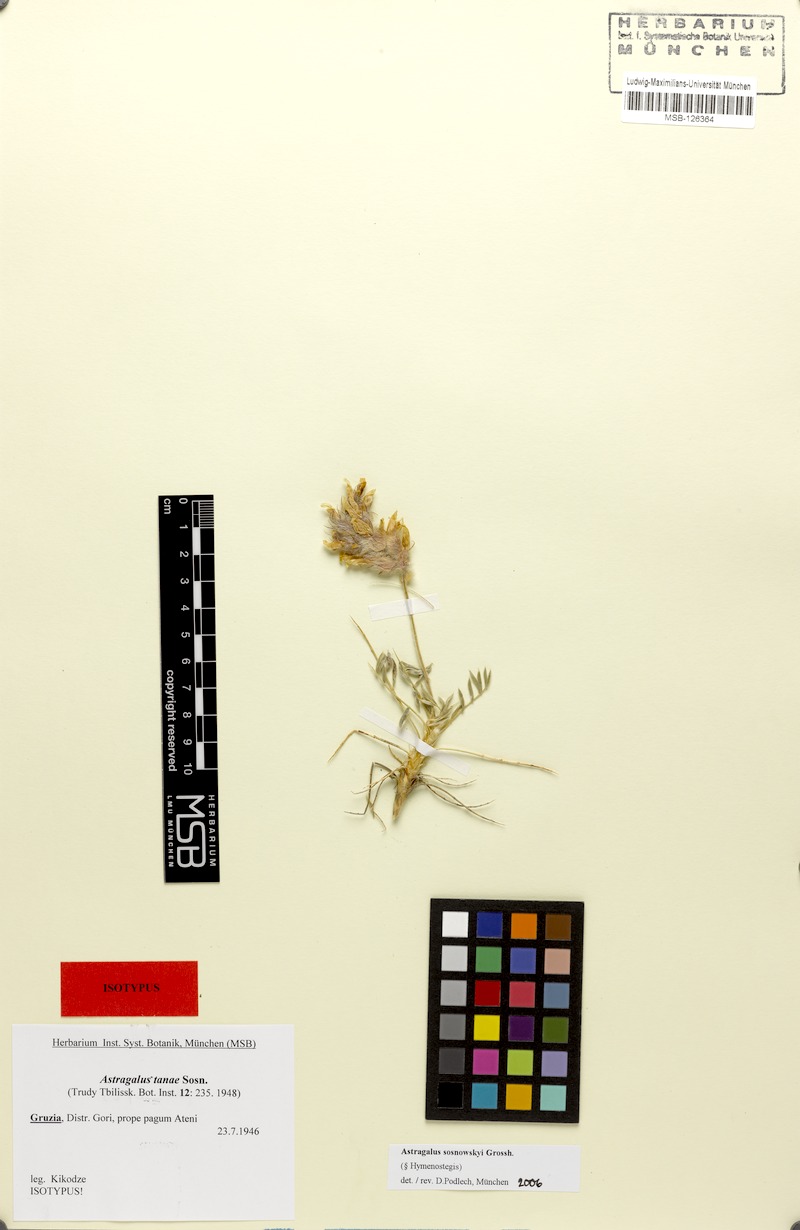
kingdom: Plantae
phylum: Tracheophyta
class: Magnoliopsida
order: Fabales
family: Fabaceae
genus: Astragalus
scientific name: Astragalus sosnowskyi
